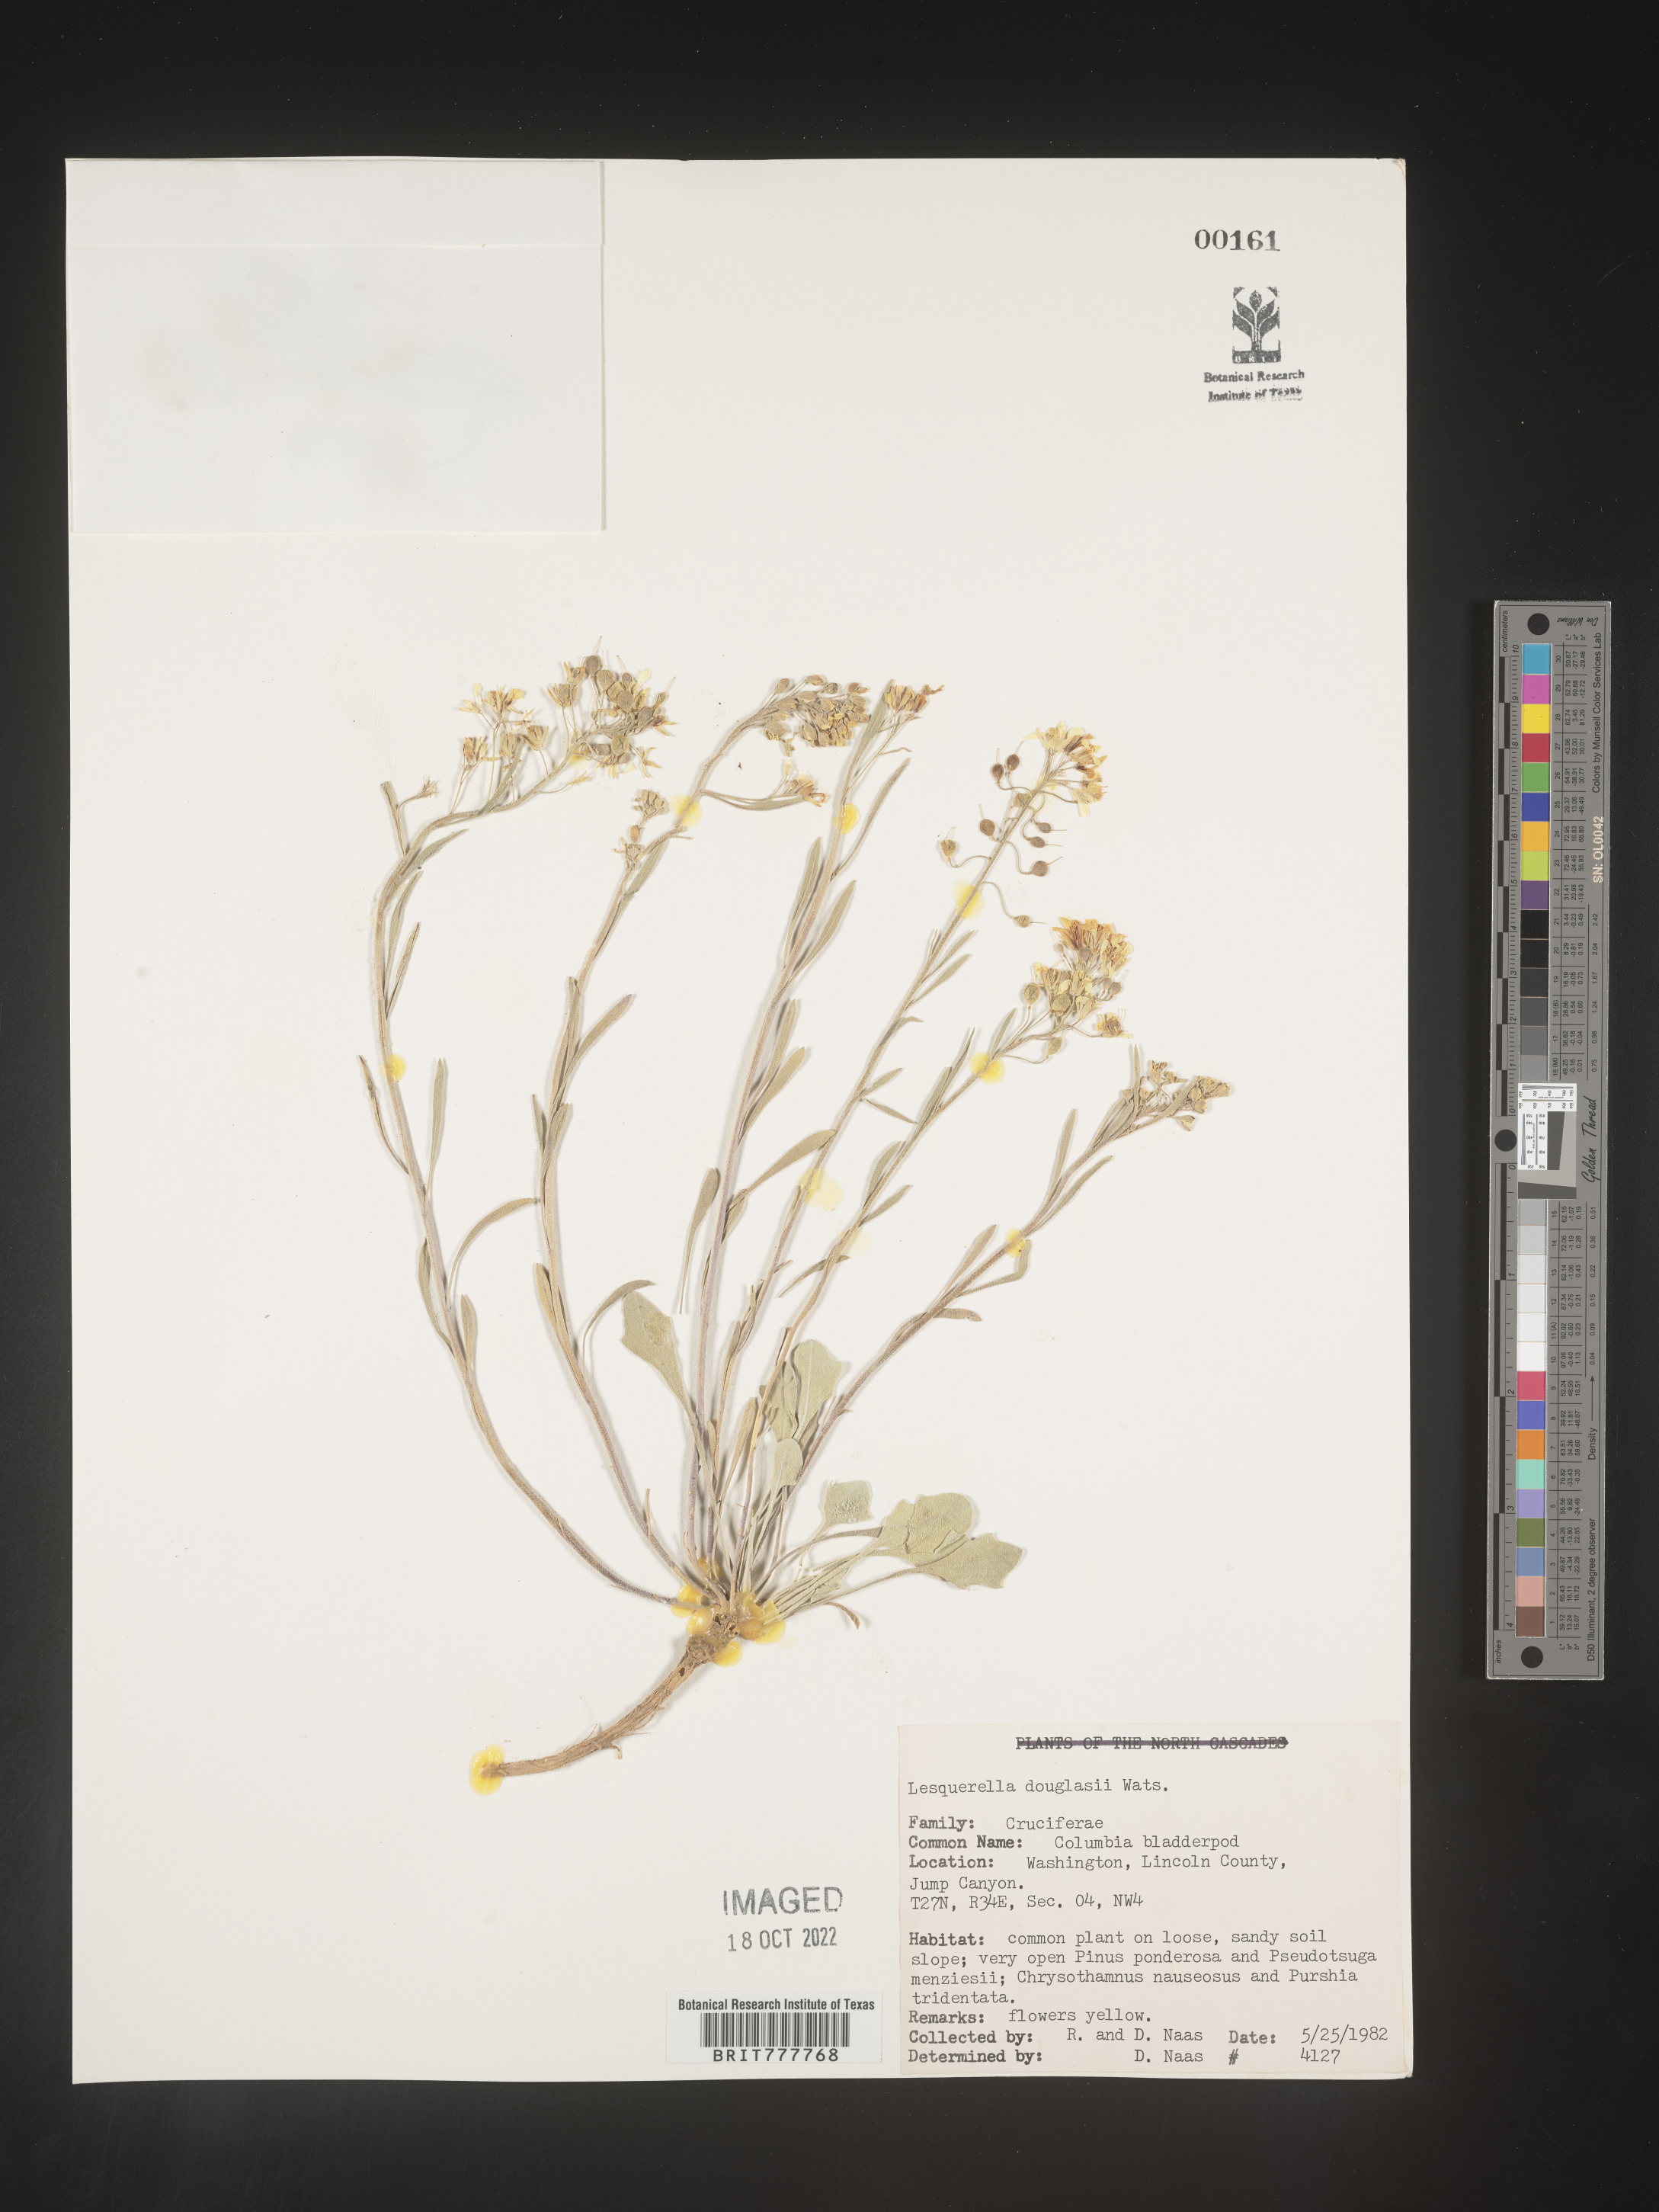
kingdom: Chromista
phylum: Cercozoa
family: Psammonobiotidae
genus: Lesquerella
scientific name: Lesquerella
